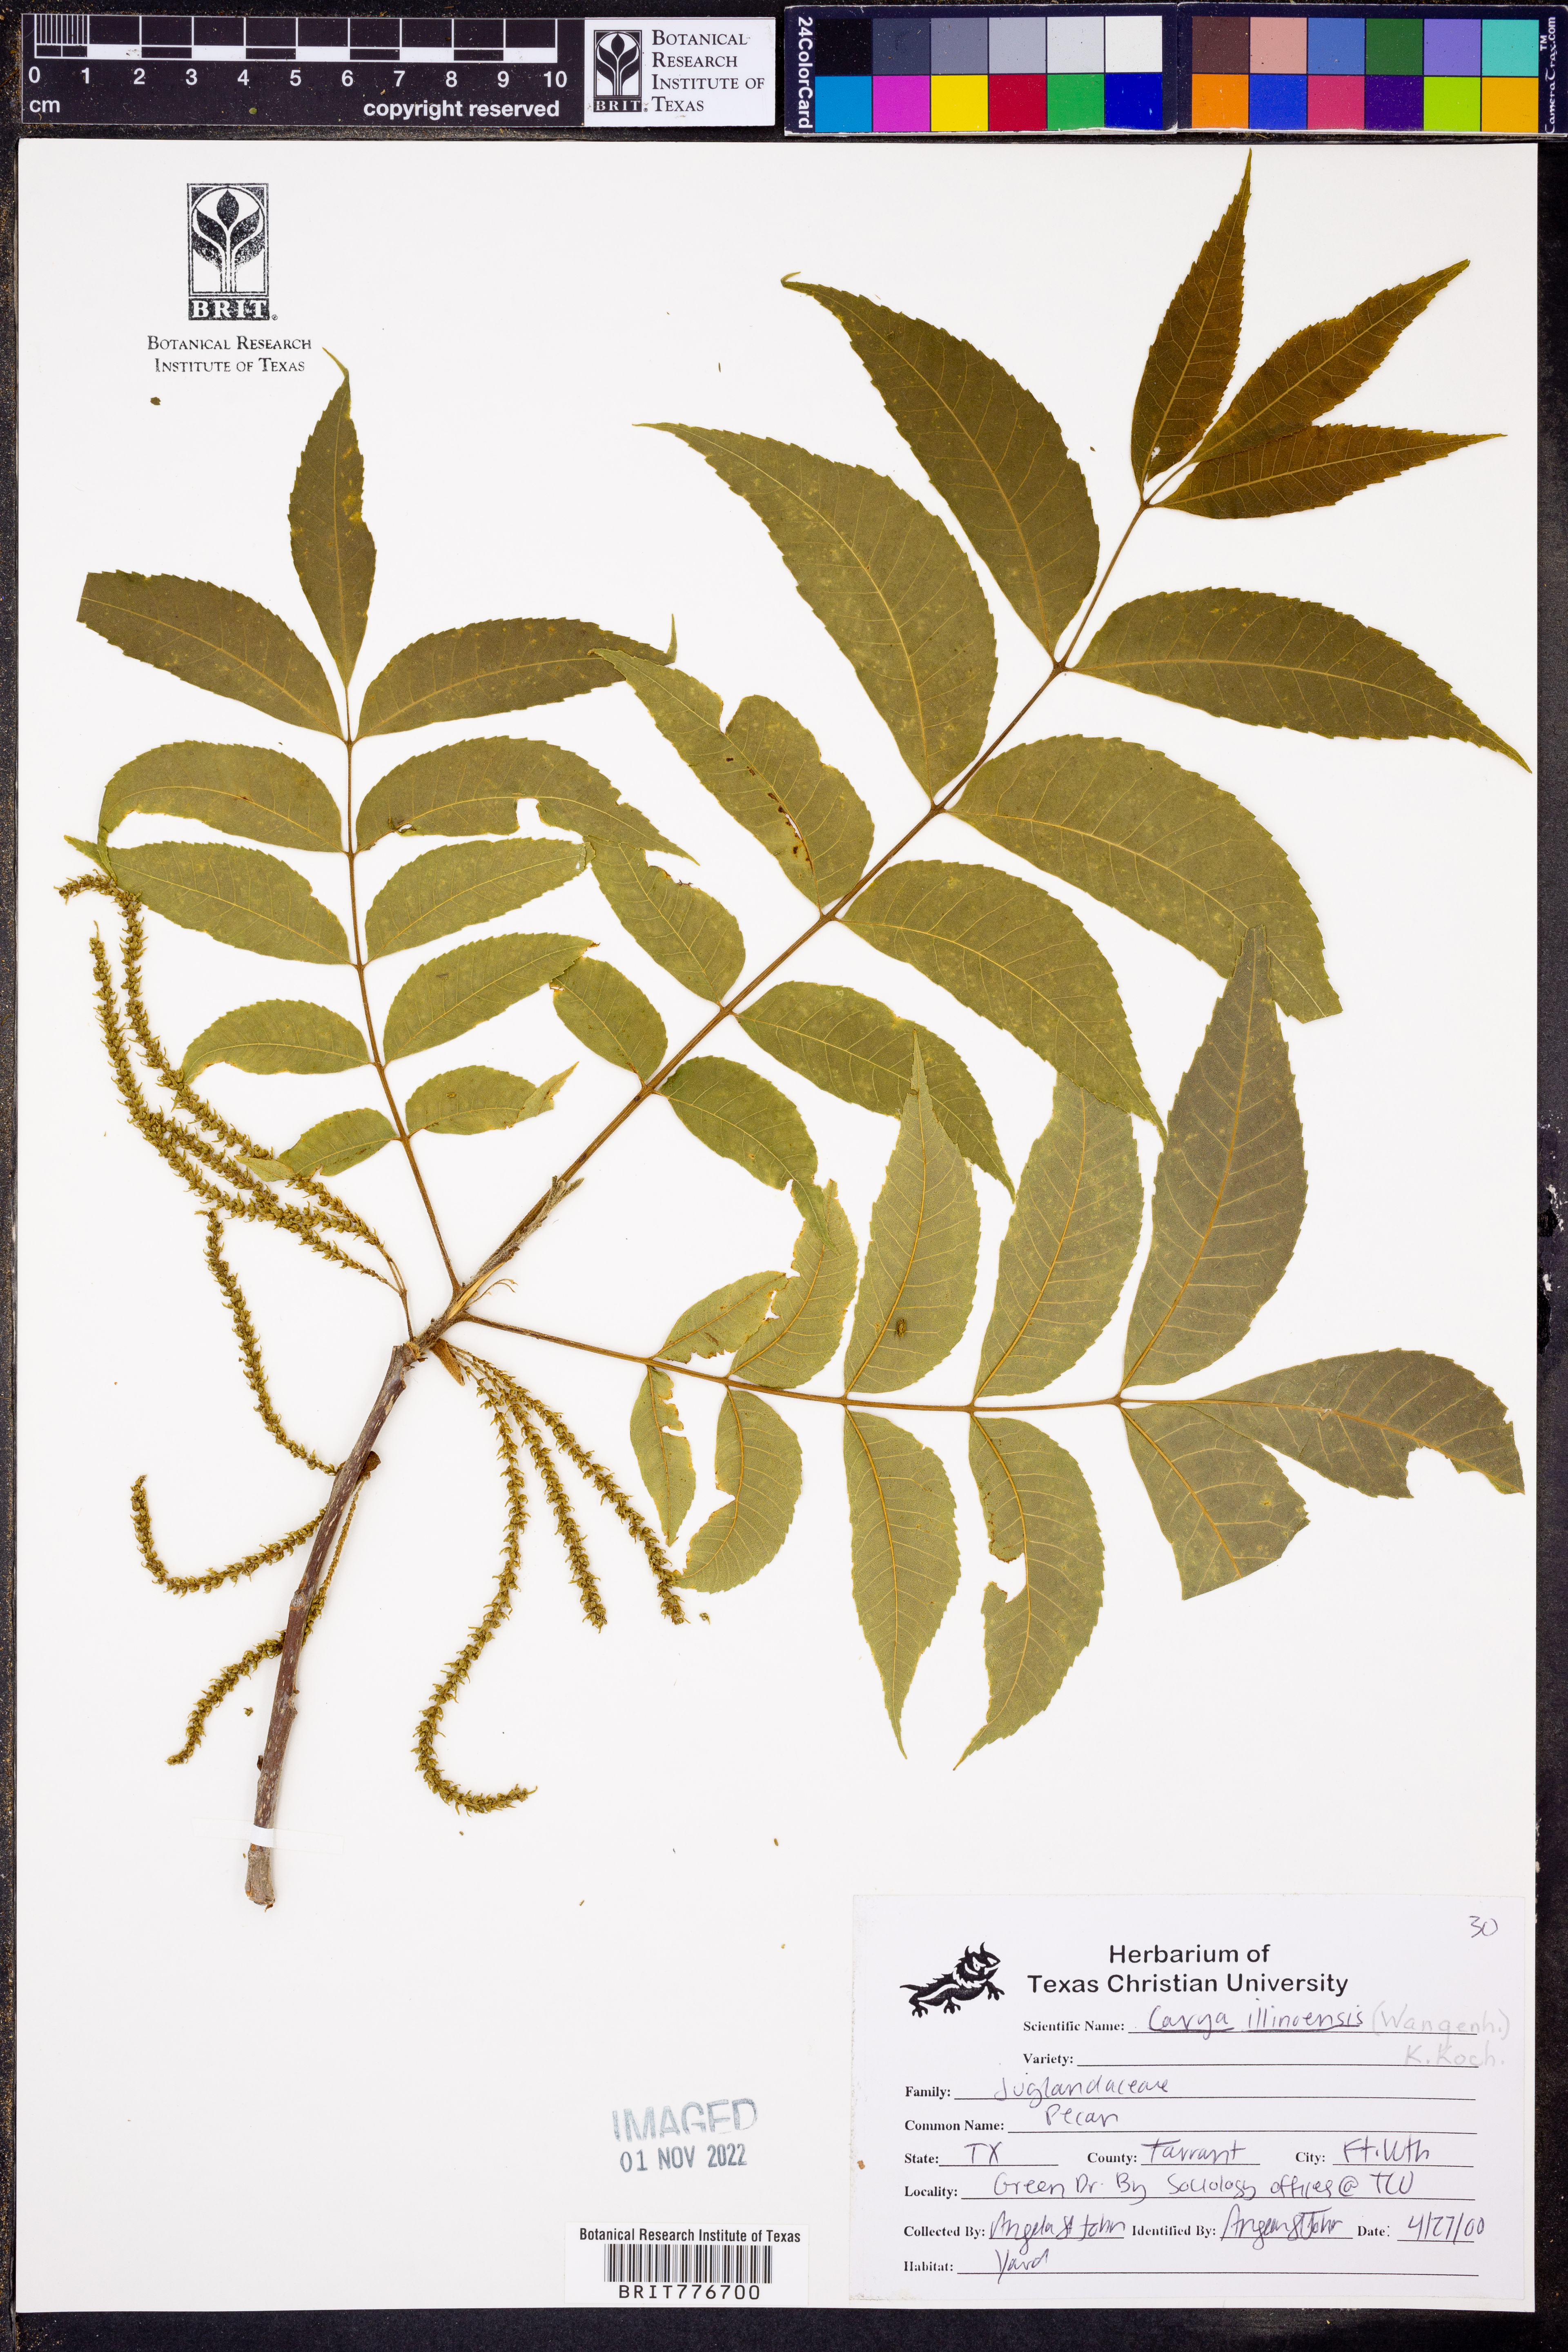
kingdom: Plantae
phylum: Tracheophyta
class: Magnoliopsida
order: Fagales
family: Juglandaceae
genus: Carya
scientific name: Carya
